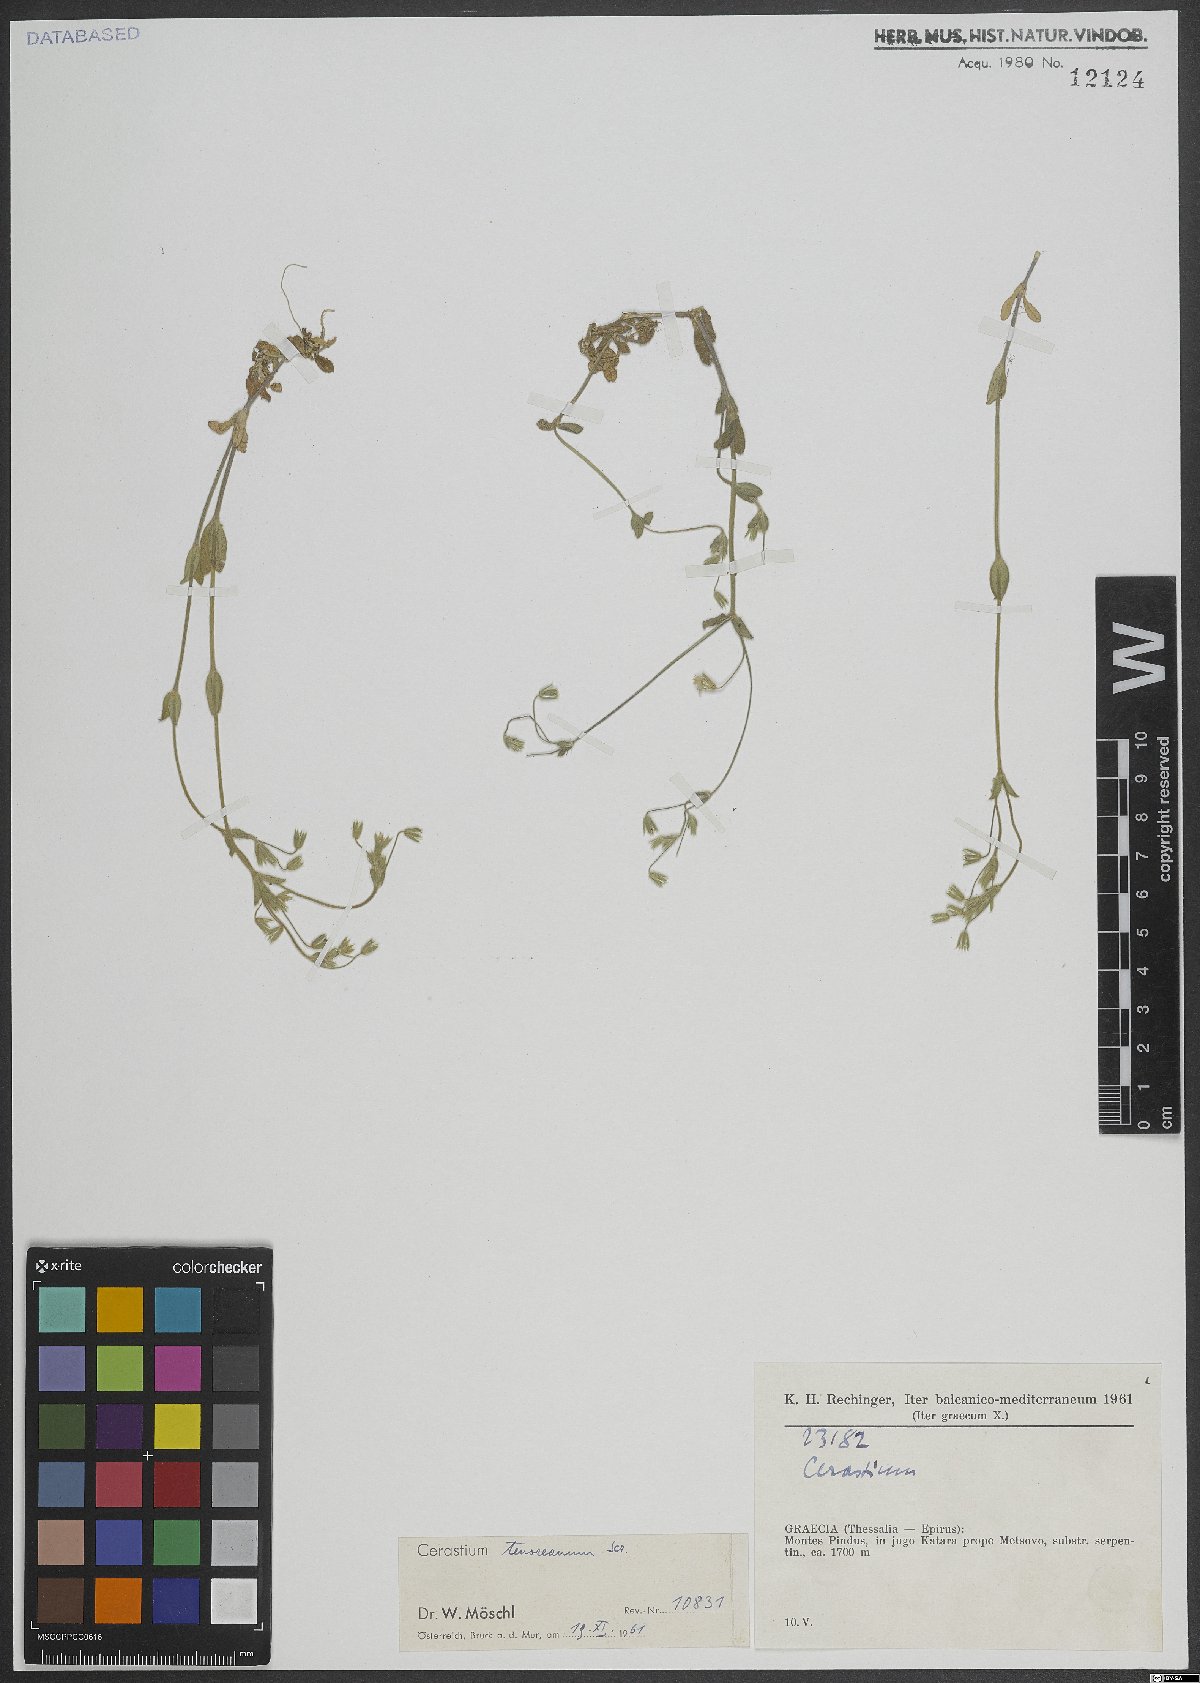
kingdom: Plantae
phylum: Tracheophyta
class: Magnoliopsida
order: Caryophyllales
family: Caryophyllaceae
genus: Cerastium
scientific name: Cerastium tenoreanum
